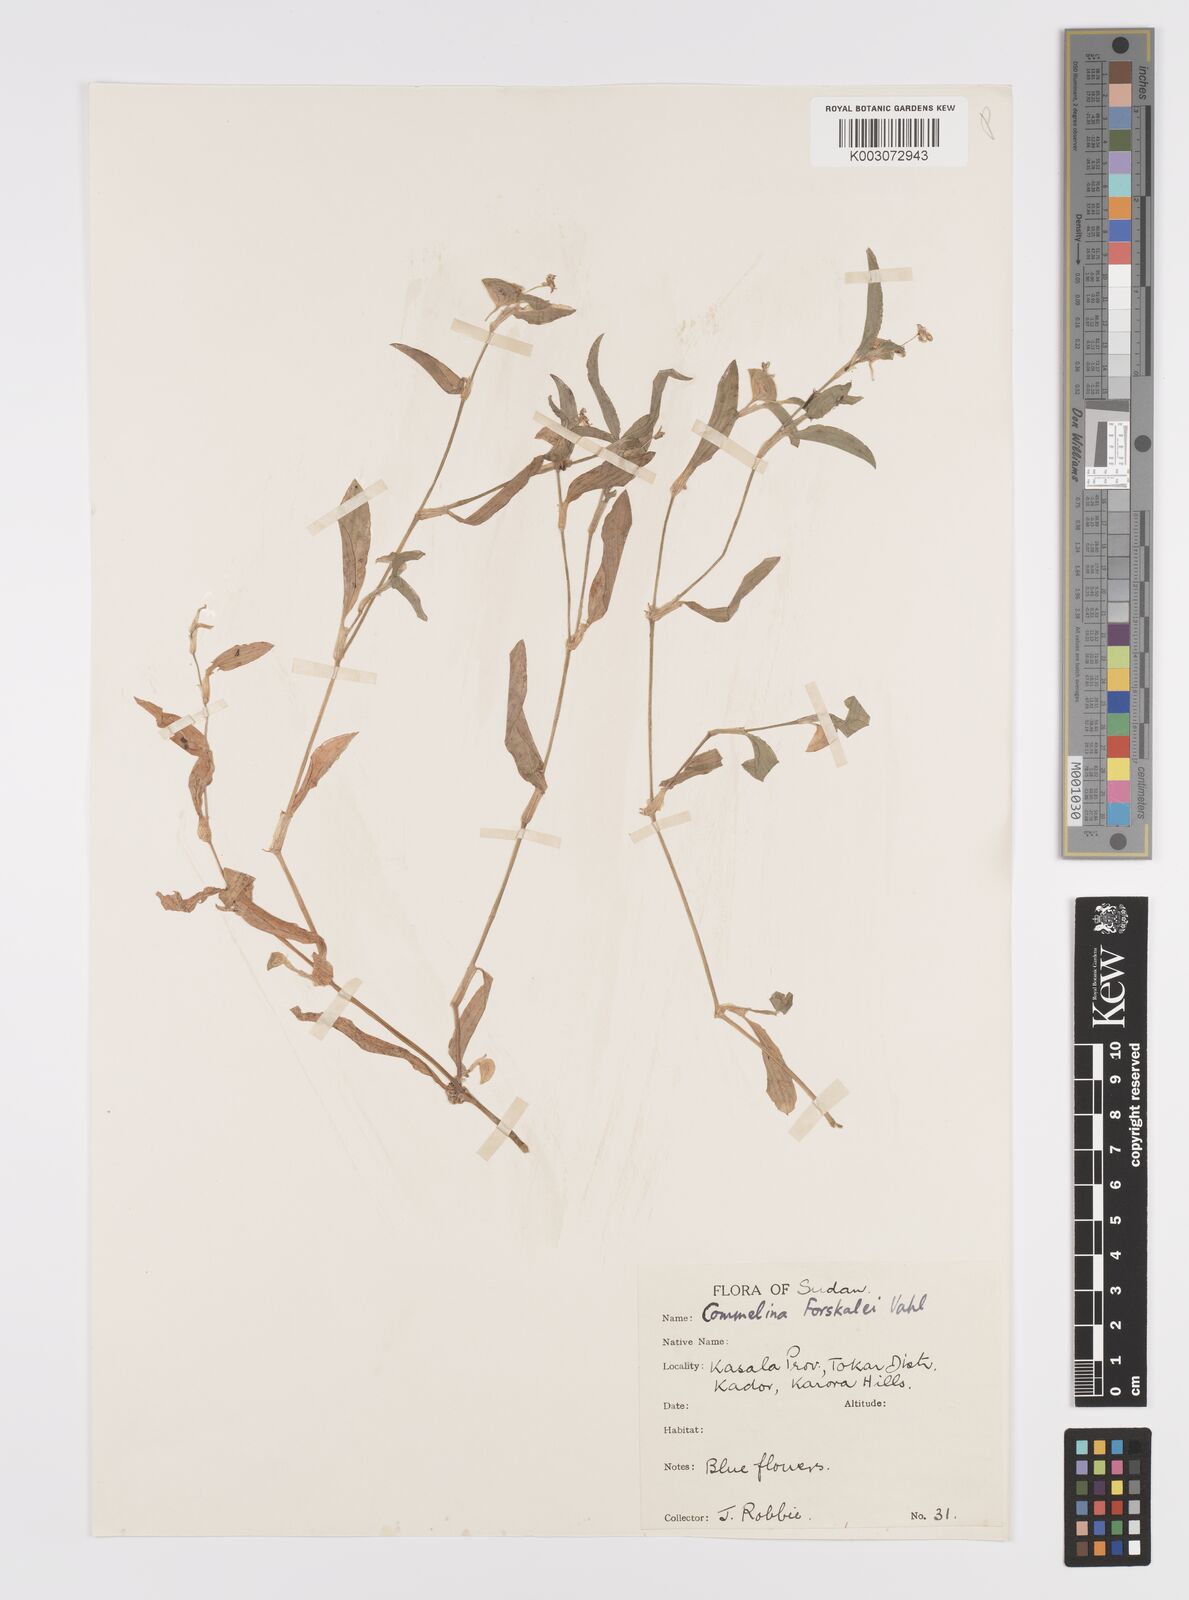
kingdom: Plantae
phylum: Tracheophyta
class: Liliopsida
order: Commelinales
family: Commelinaceae
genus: Commelina
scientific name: Commelina forskaolii
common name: Rat's ear
